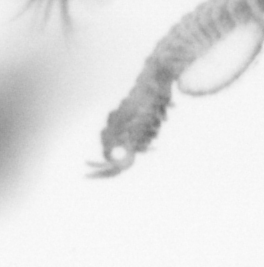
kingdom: Animalia
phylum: Annelida
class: Polychaeta
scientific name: Polychaeta
